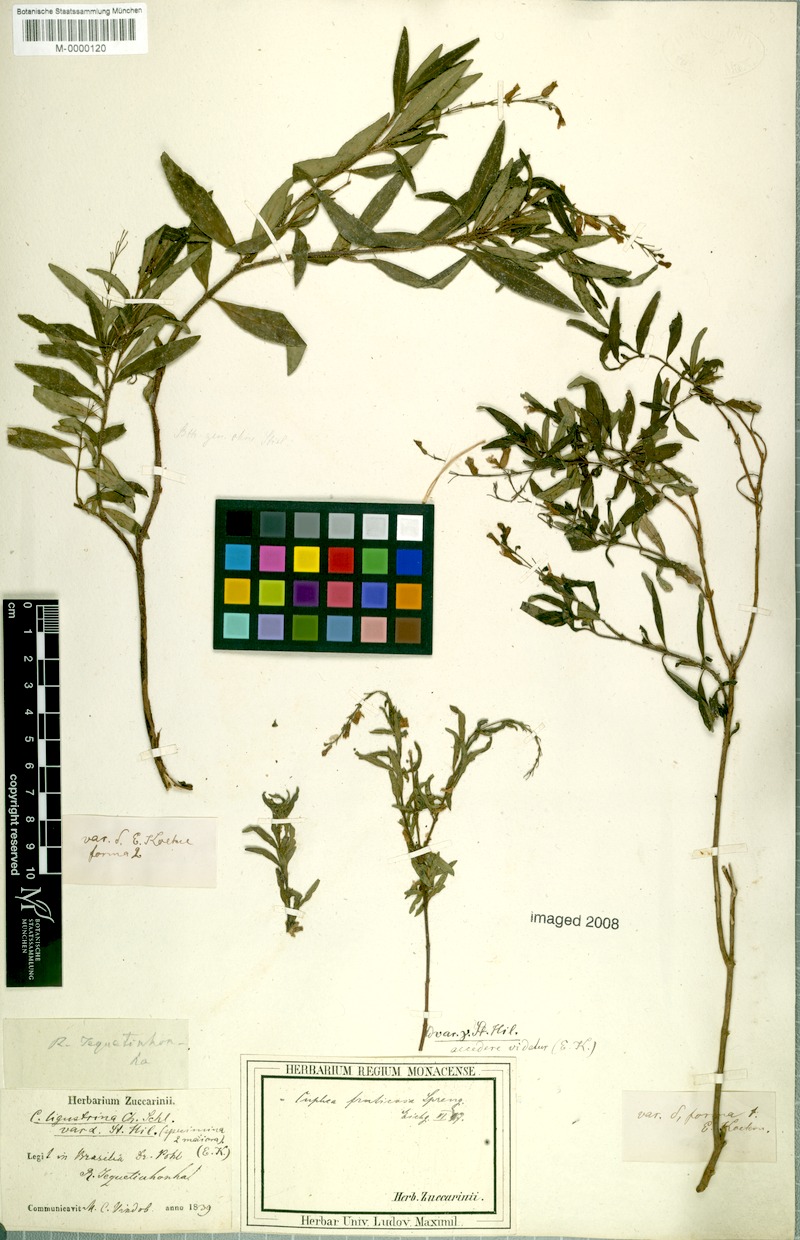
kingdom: Plantae
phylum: Tracheophyta
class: Magnoliopsida
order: Myrtales
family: Lythraceae
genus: Cuphea
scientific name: Cuphea fruticosa
